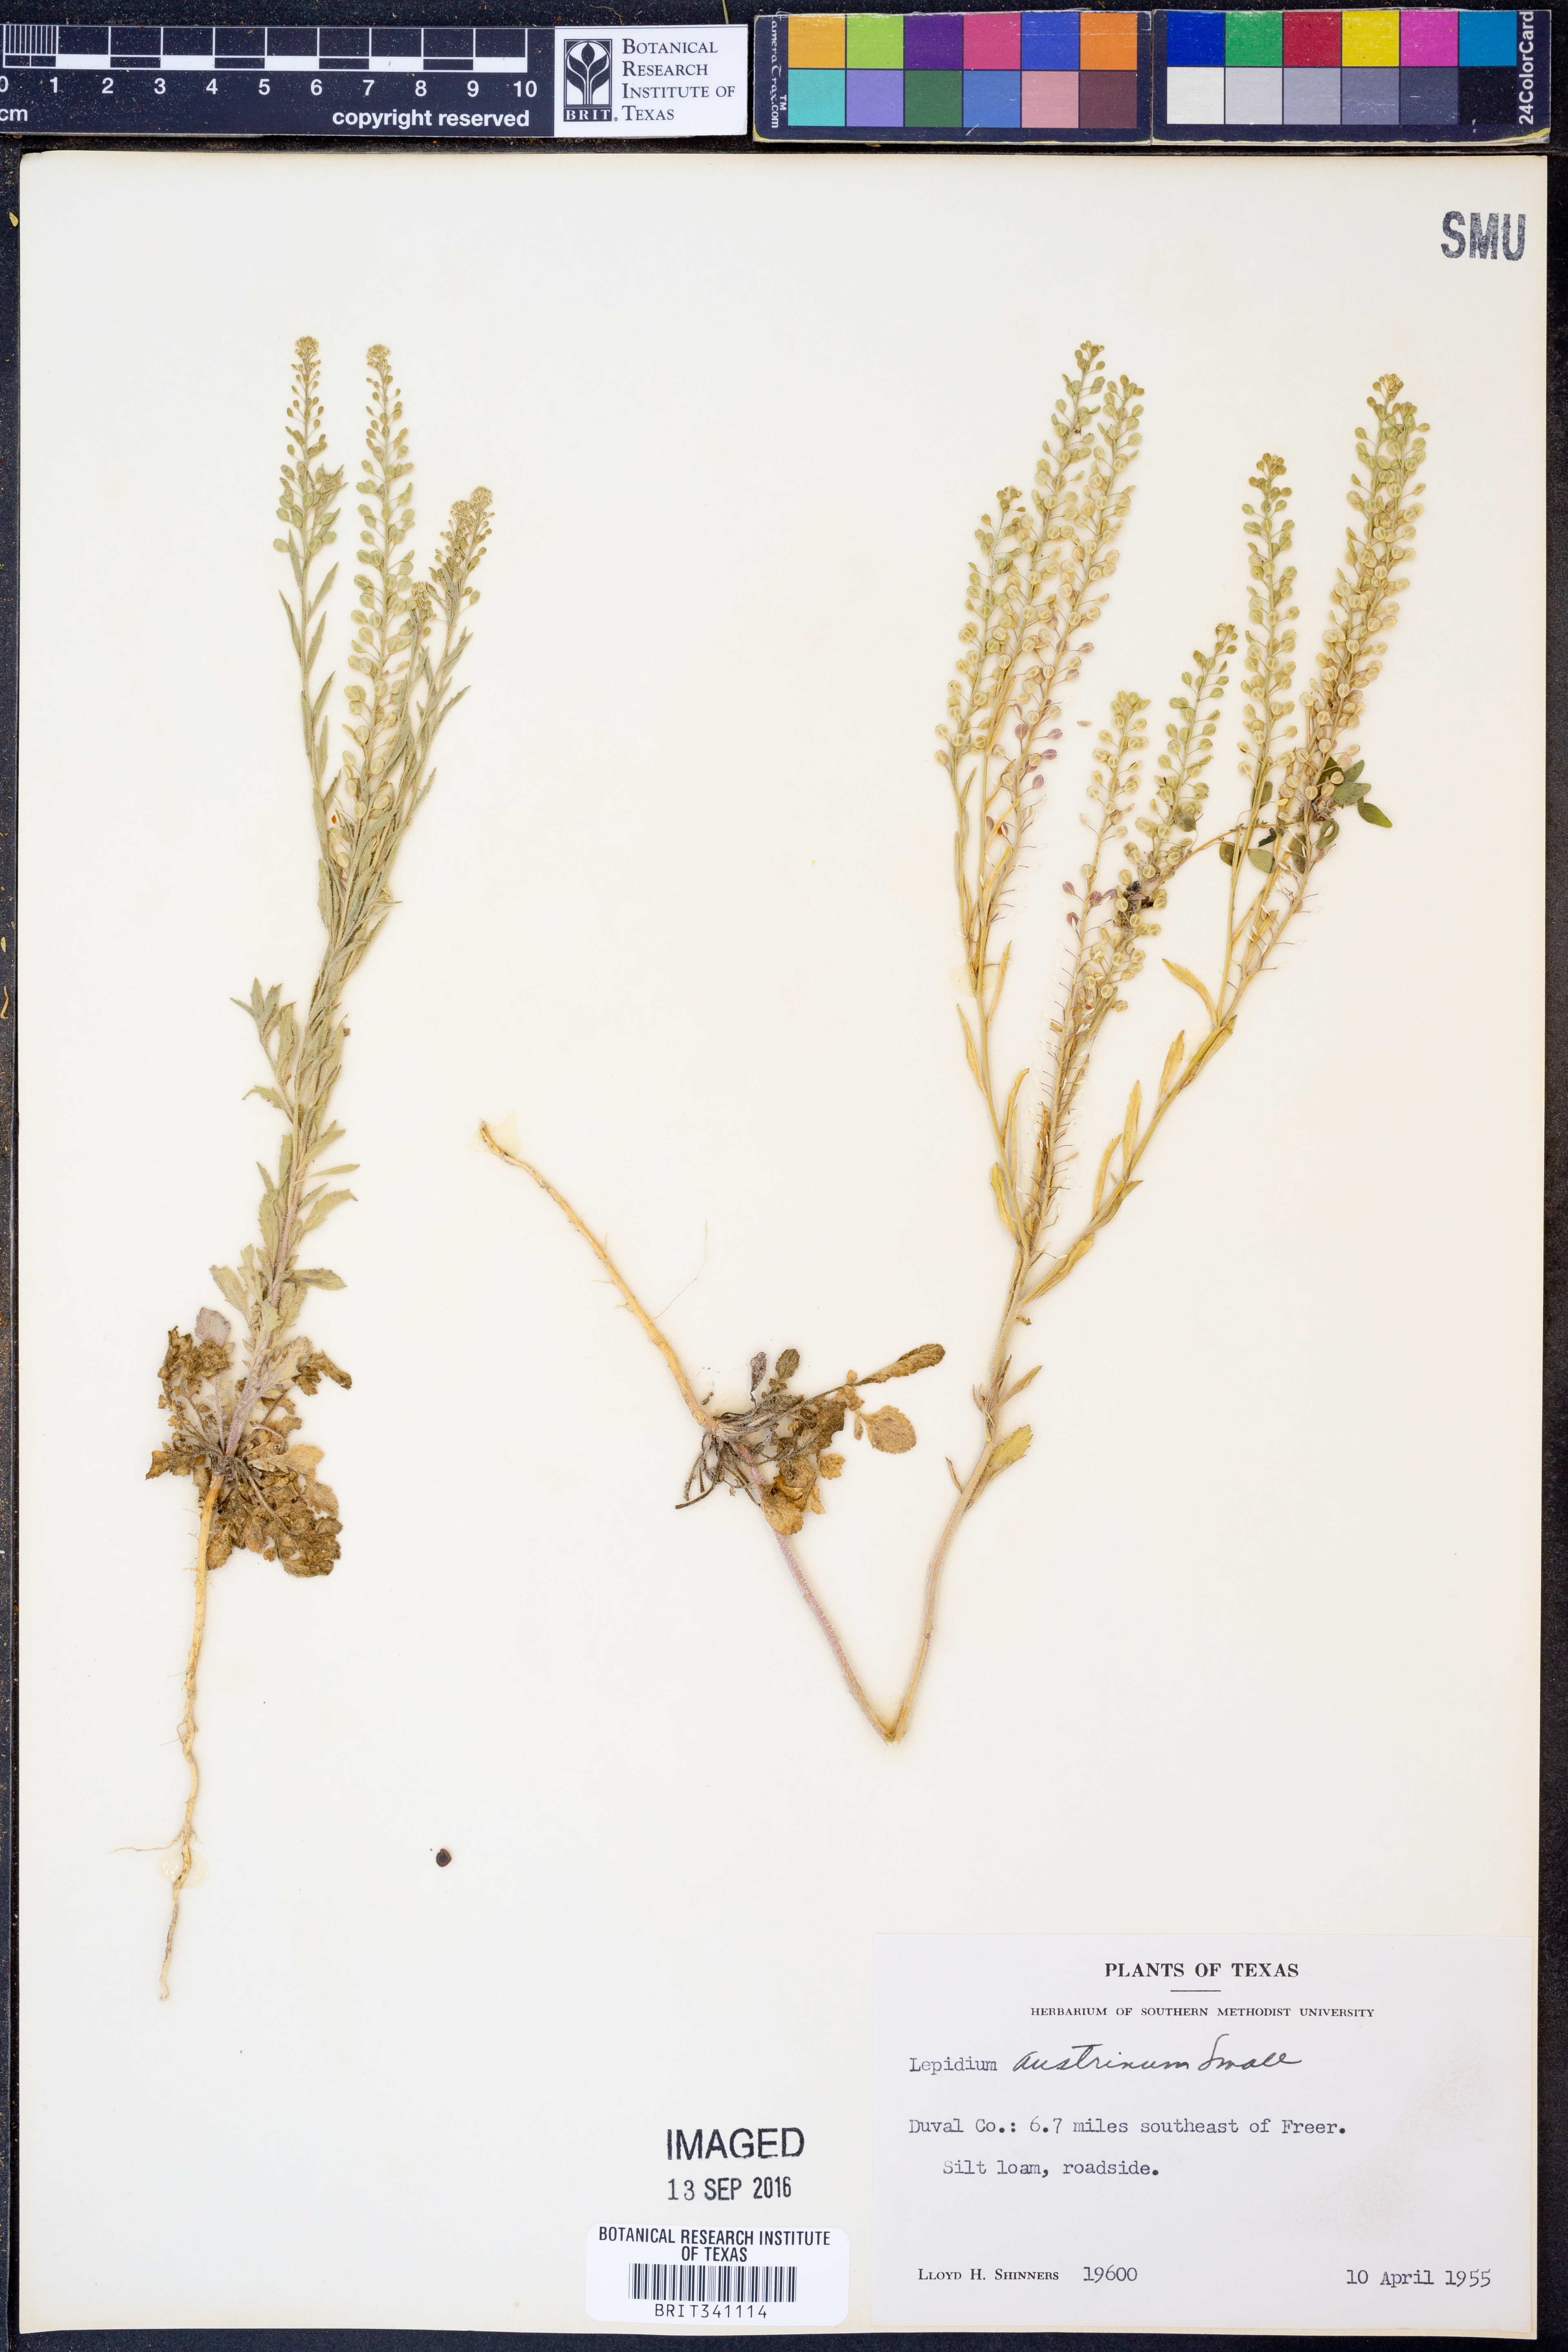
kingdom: Plantae
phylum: Tracheophyta
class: Magnoliopsida
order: Brassicales
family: Brassicaceae
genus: Lepidium
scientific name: Lepidium austrinum
